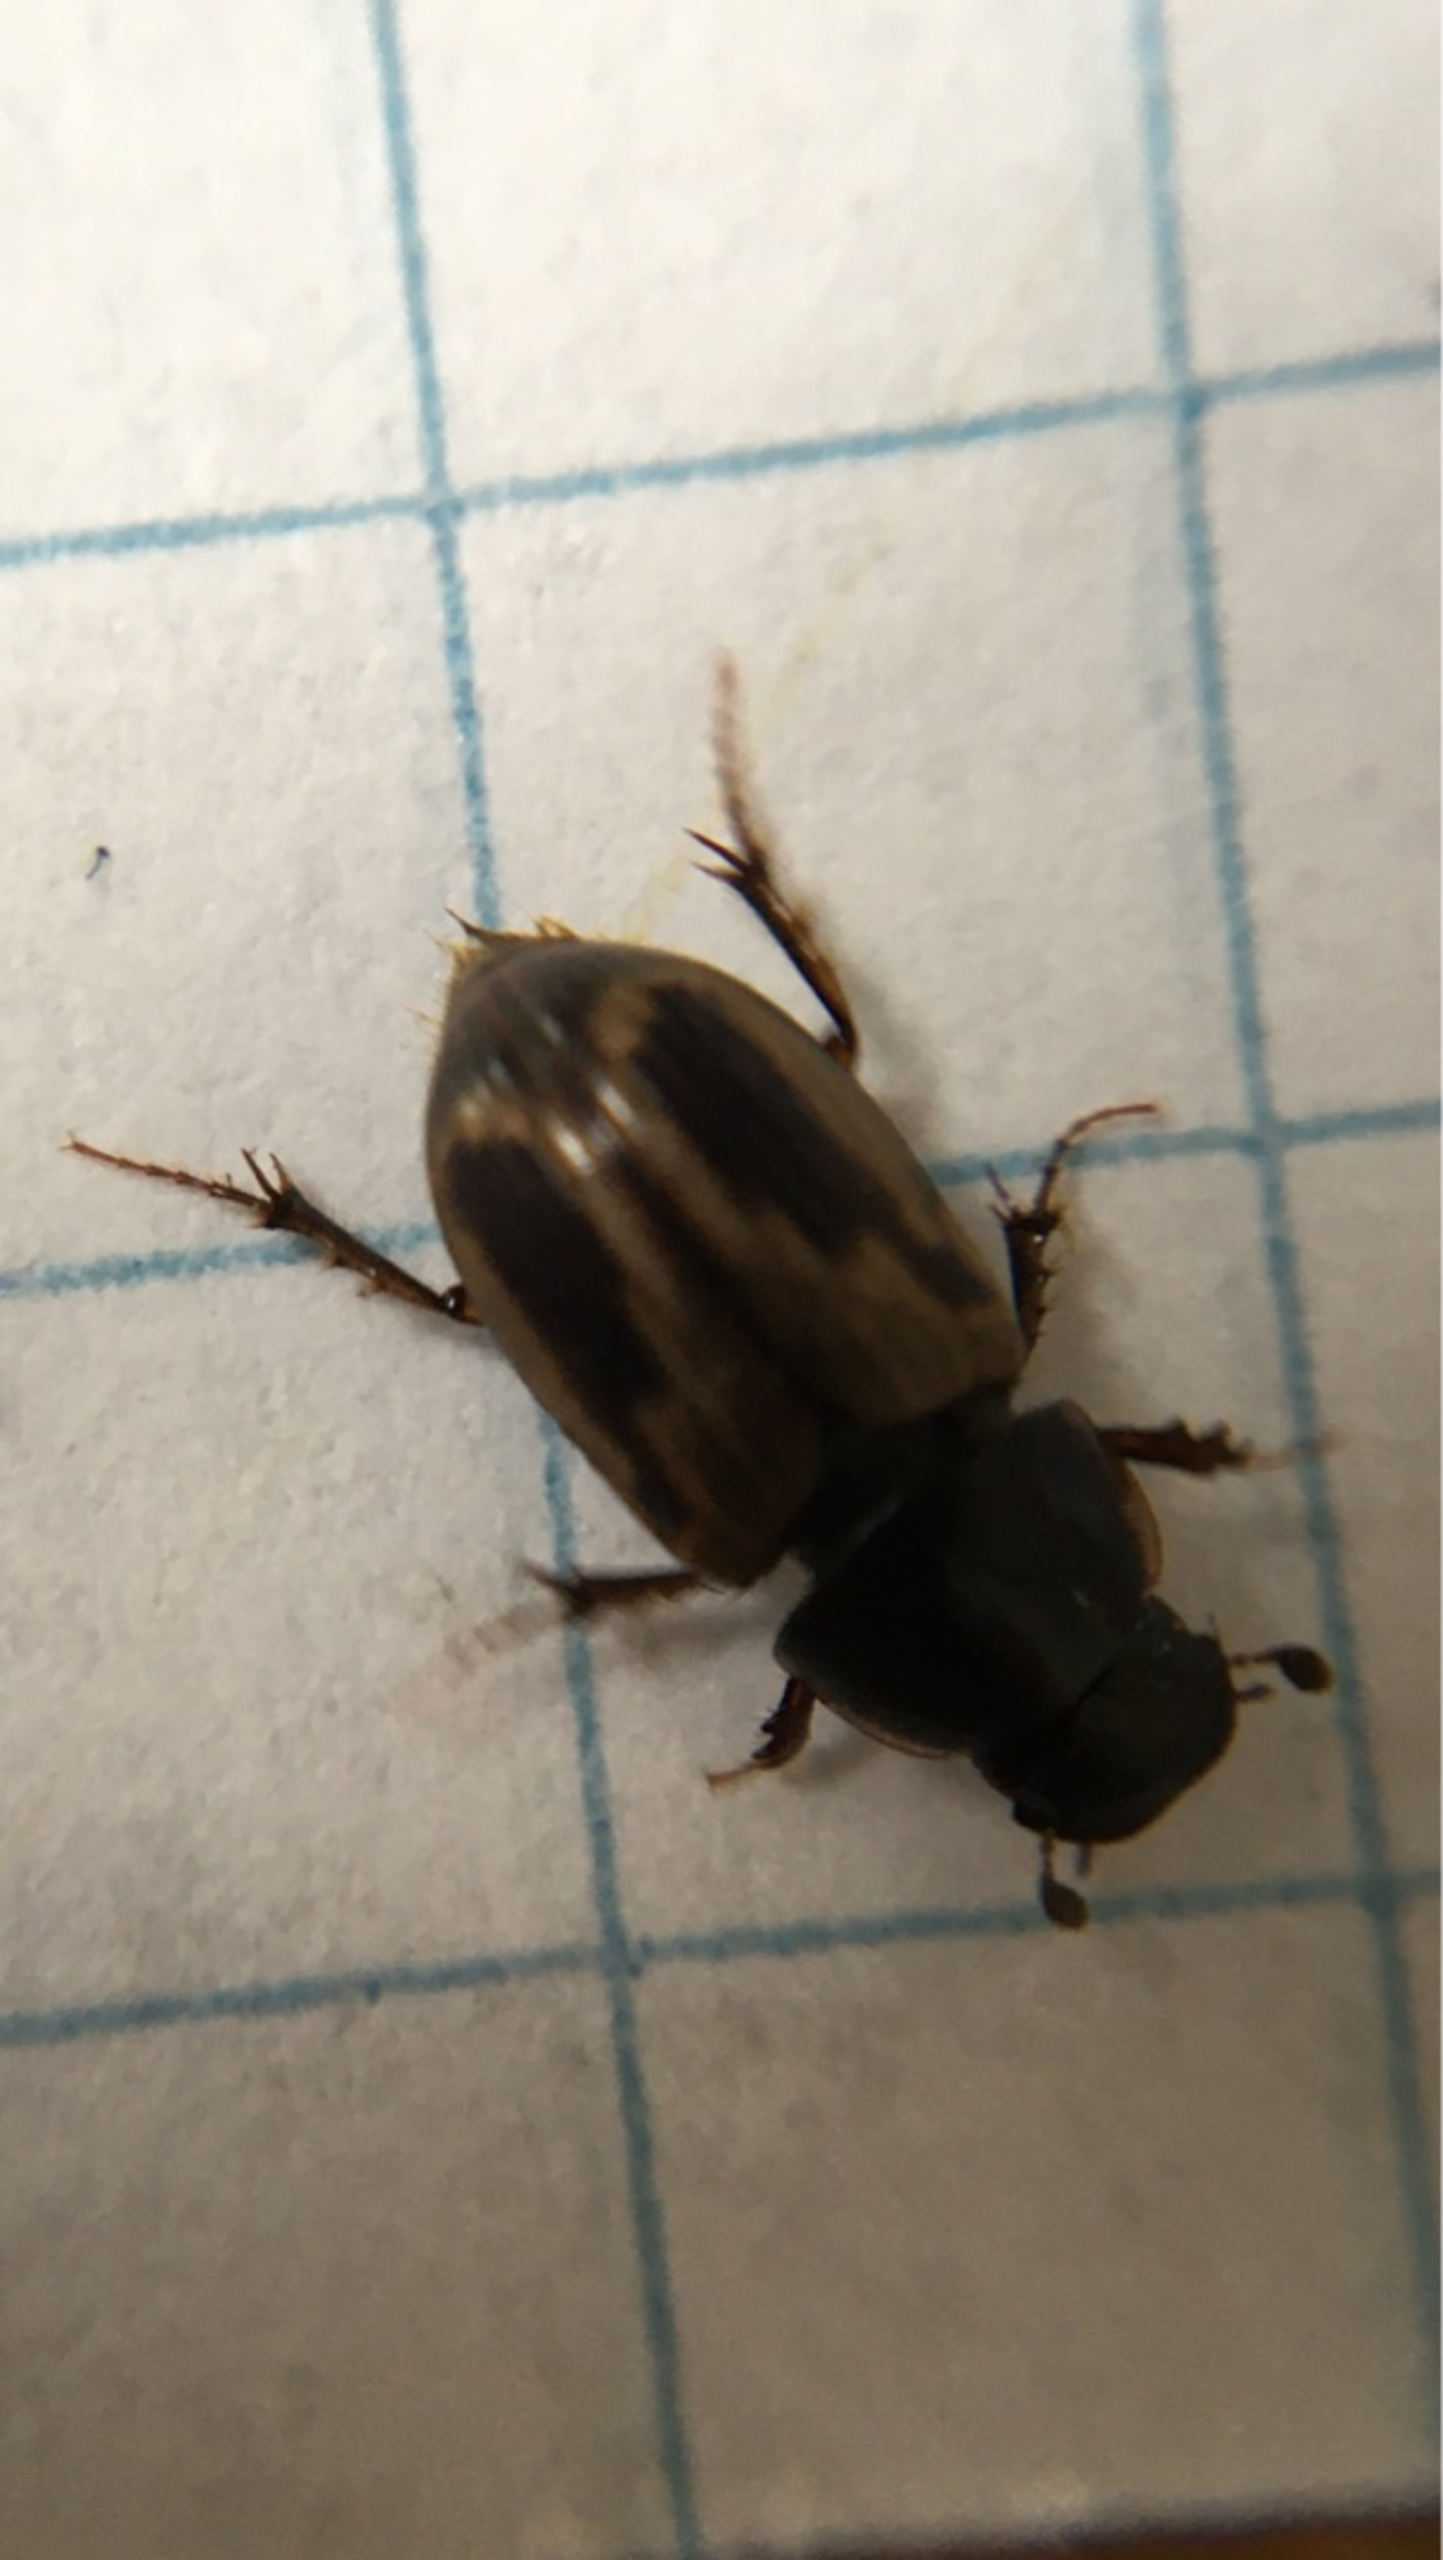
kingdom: Animalia
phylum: Arthropoda
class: Insecta
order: Coleoptera
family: Scarabaeidae
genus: Melinopterus
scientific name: Melinopterus prodromus
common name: Almindelig møgbille
